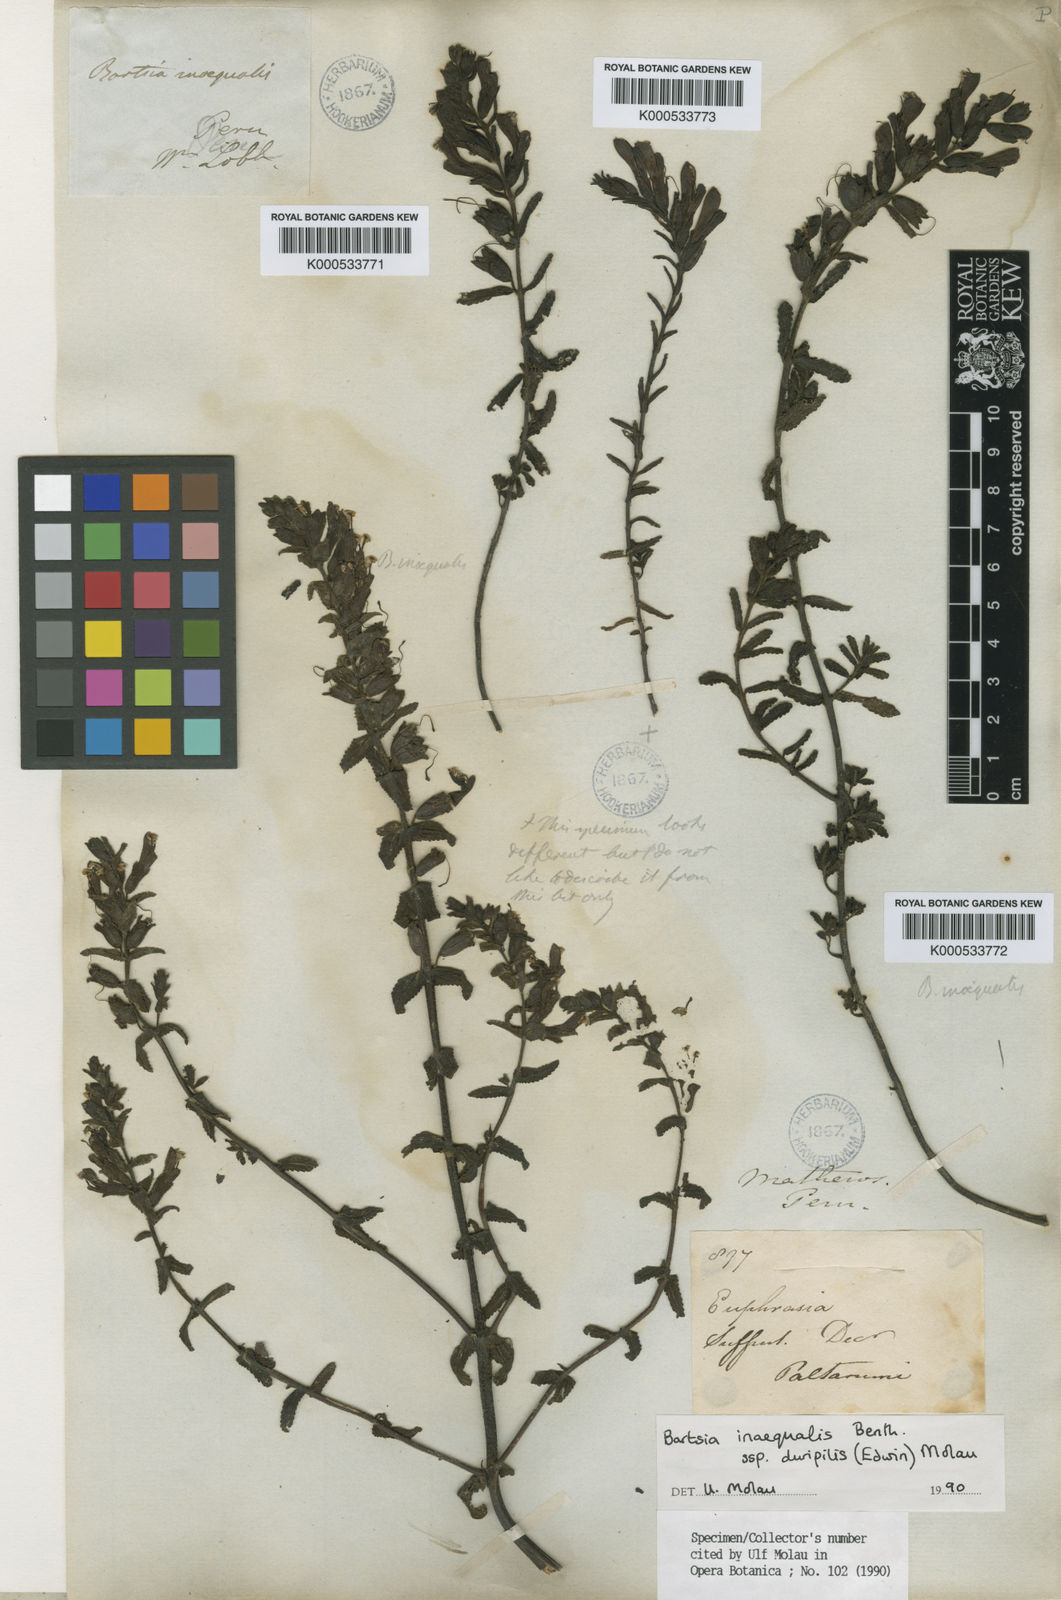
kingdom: Plantae
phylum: Tracheophyta
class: Magnoliopsida
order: Lamiales
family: Orobanchaceae
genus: Neobartsia
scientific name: Neobartsia inaequalis
